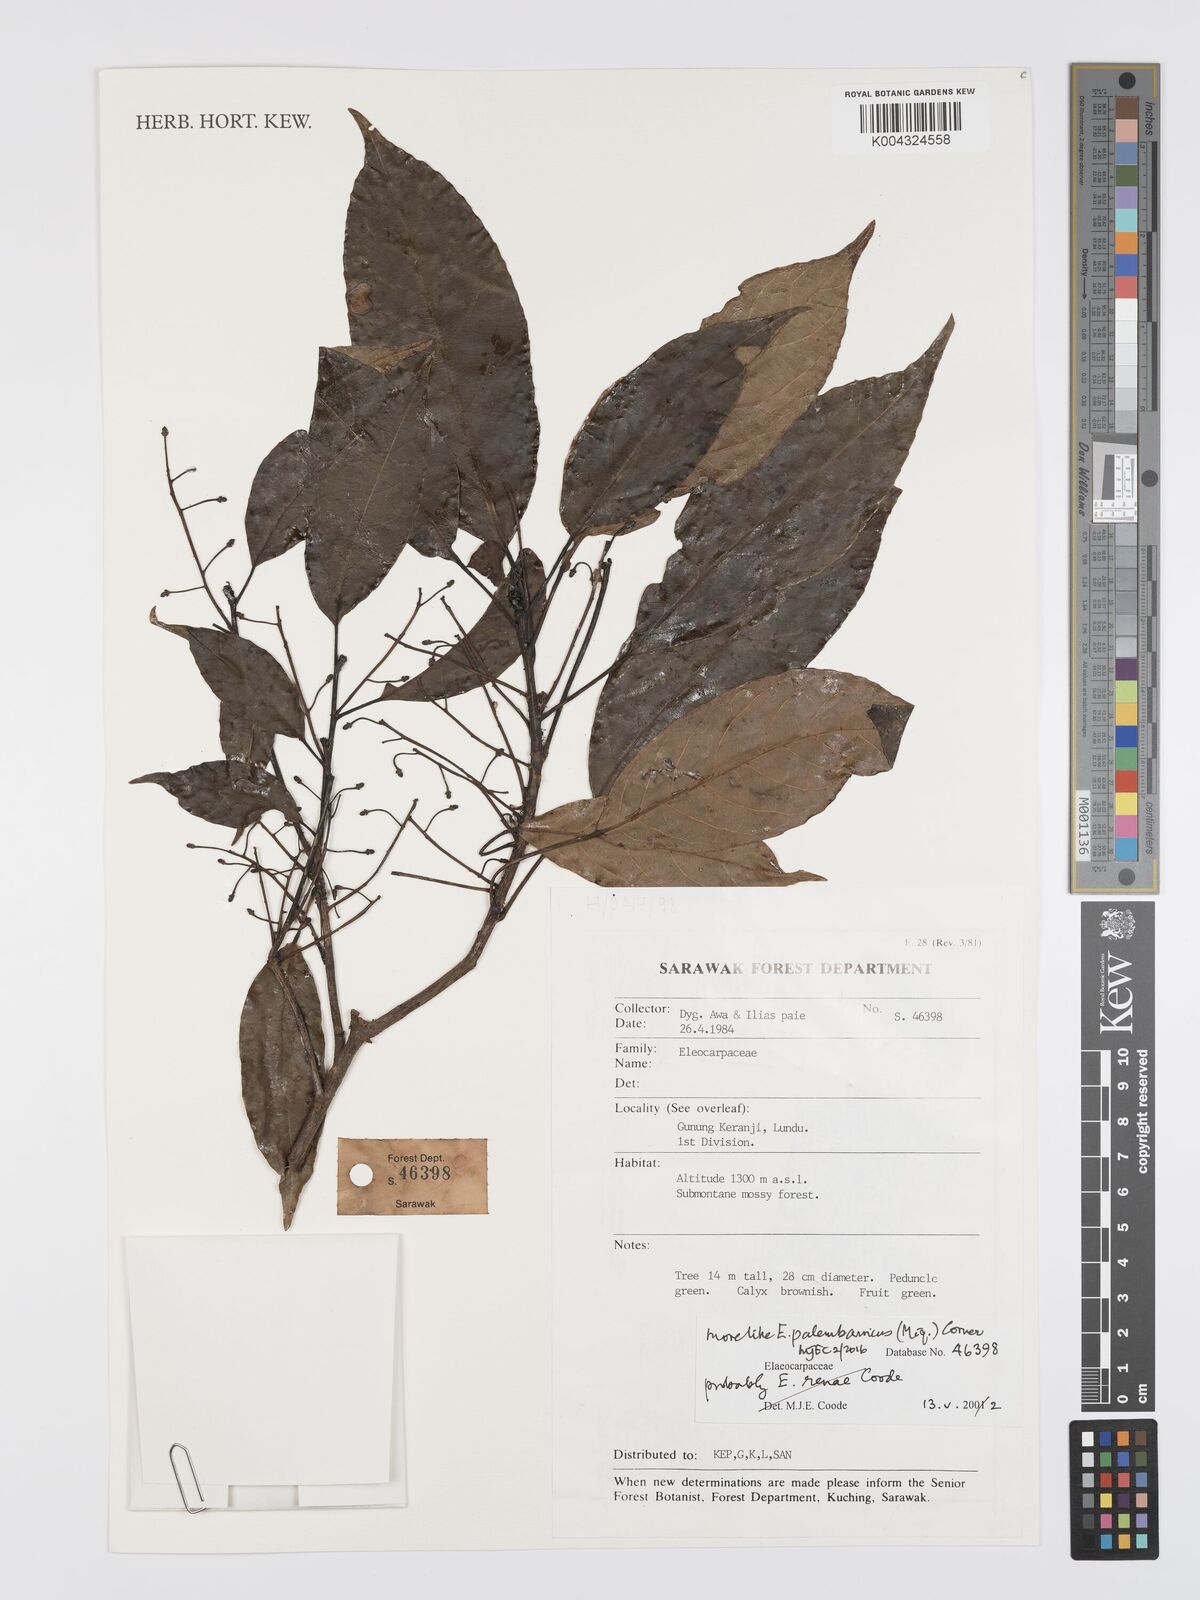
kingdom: Plantae
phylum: Tracheophyta
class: Magnoliopsida
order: Oxalidales
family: Elaeocarpaceae
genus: Elaeocarpus
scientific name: Elaeocarpus palembanicus
